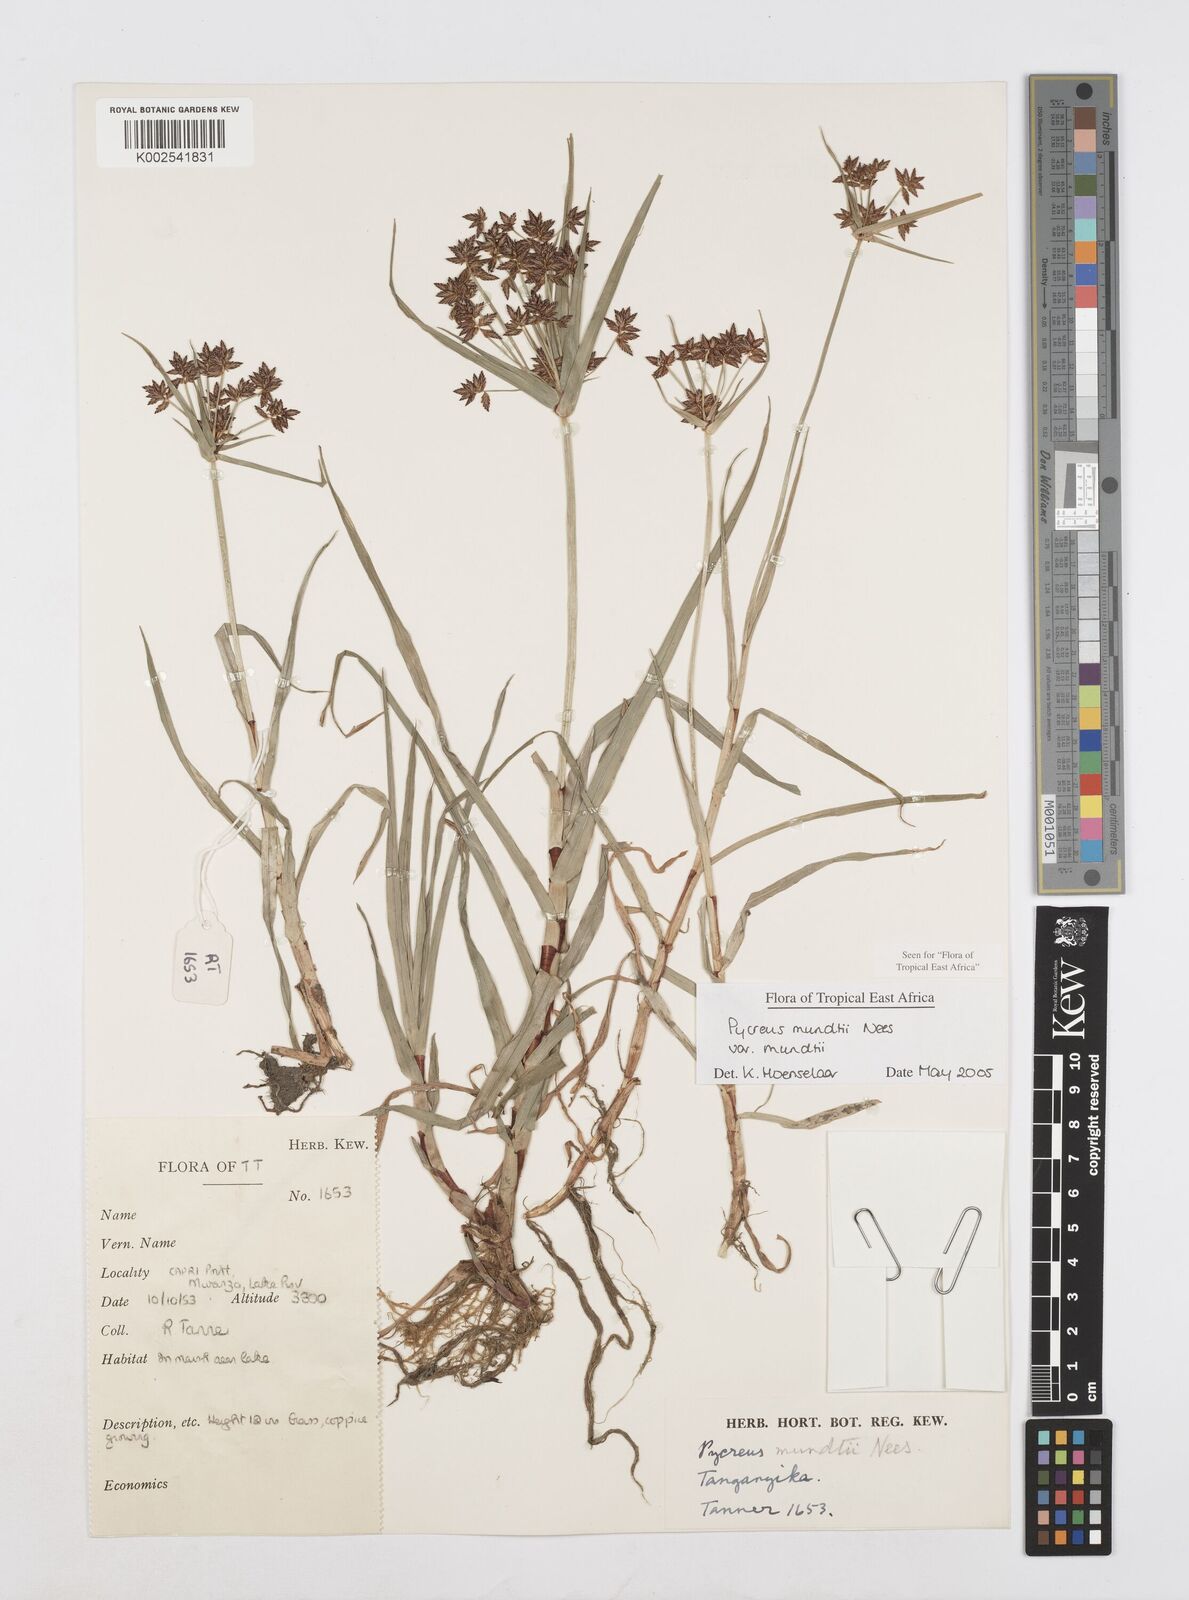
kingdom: Plantae
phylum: Tracheophyta
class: Liliopsida
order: Poales
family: Cyperaceae
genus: Cyperus
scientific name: Cyperus mundii
